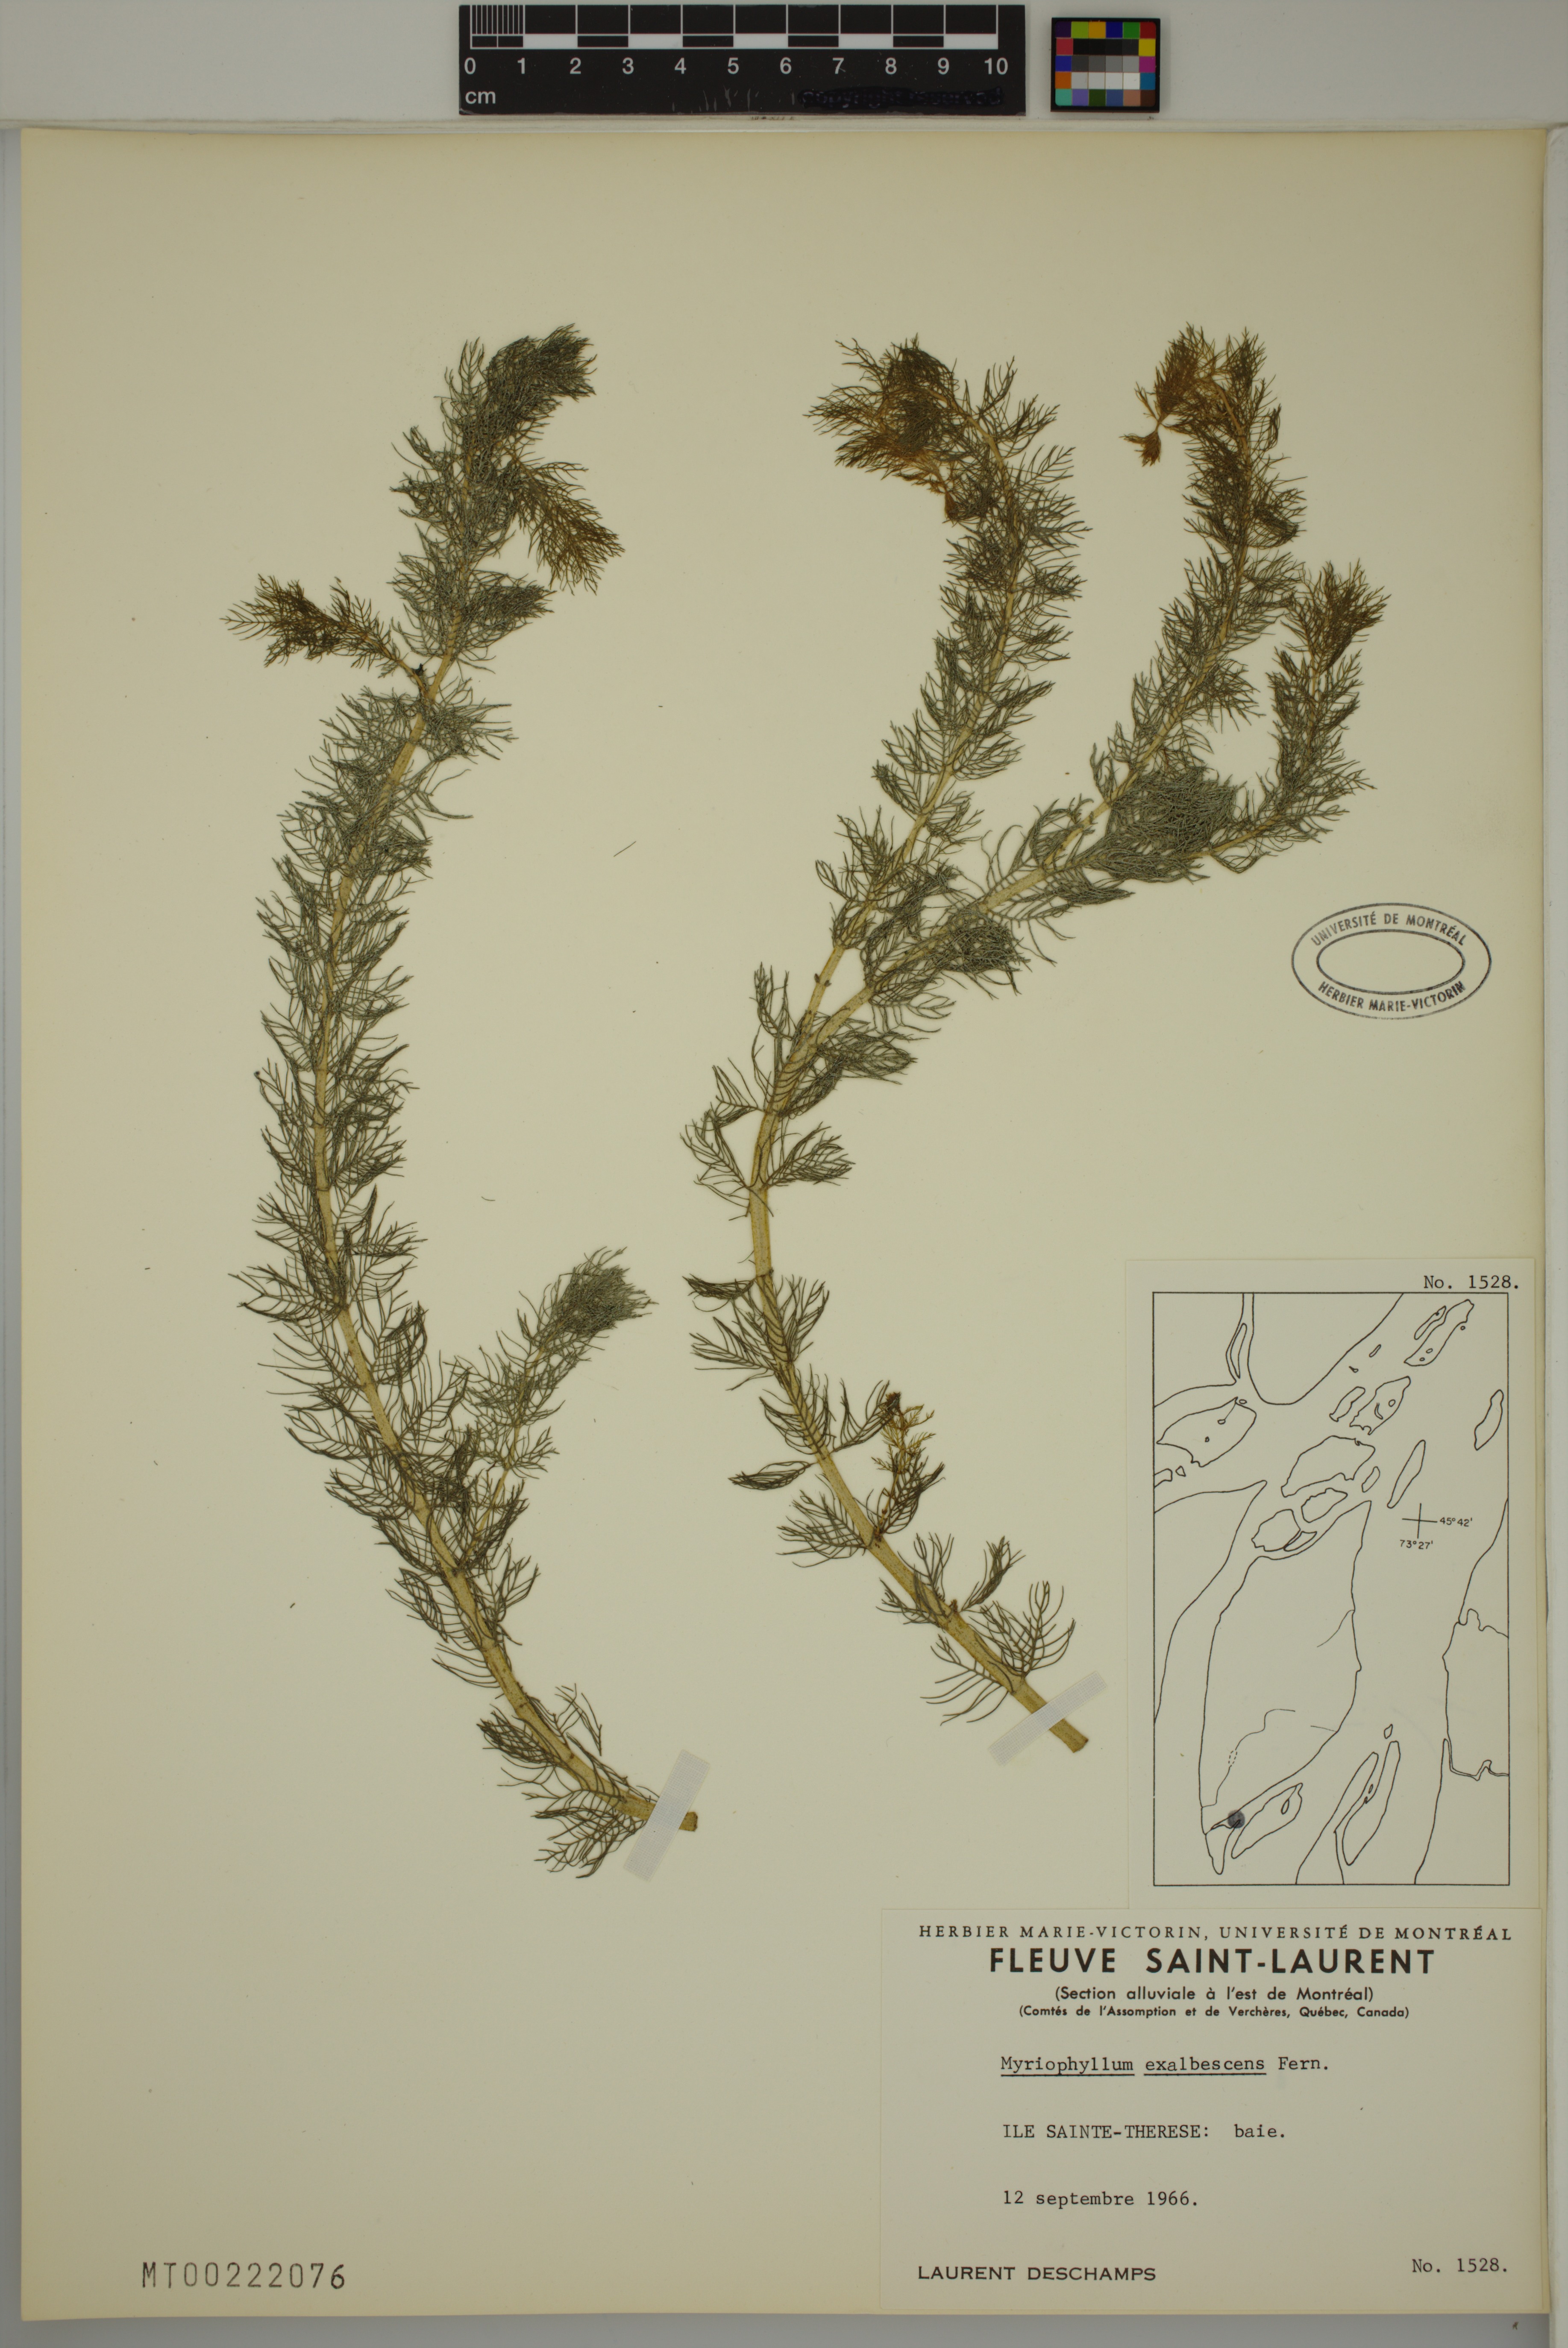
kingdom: Plantae
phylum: Tracheophyta
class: Magnoliopsida
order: Saxifragales
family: Haloragaceae
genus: Myriophyllum
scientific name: Myriophyllum sibiricum
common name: Siberian water-milfoil
